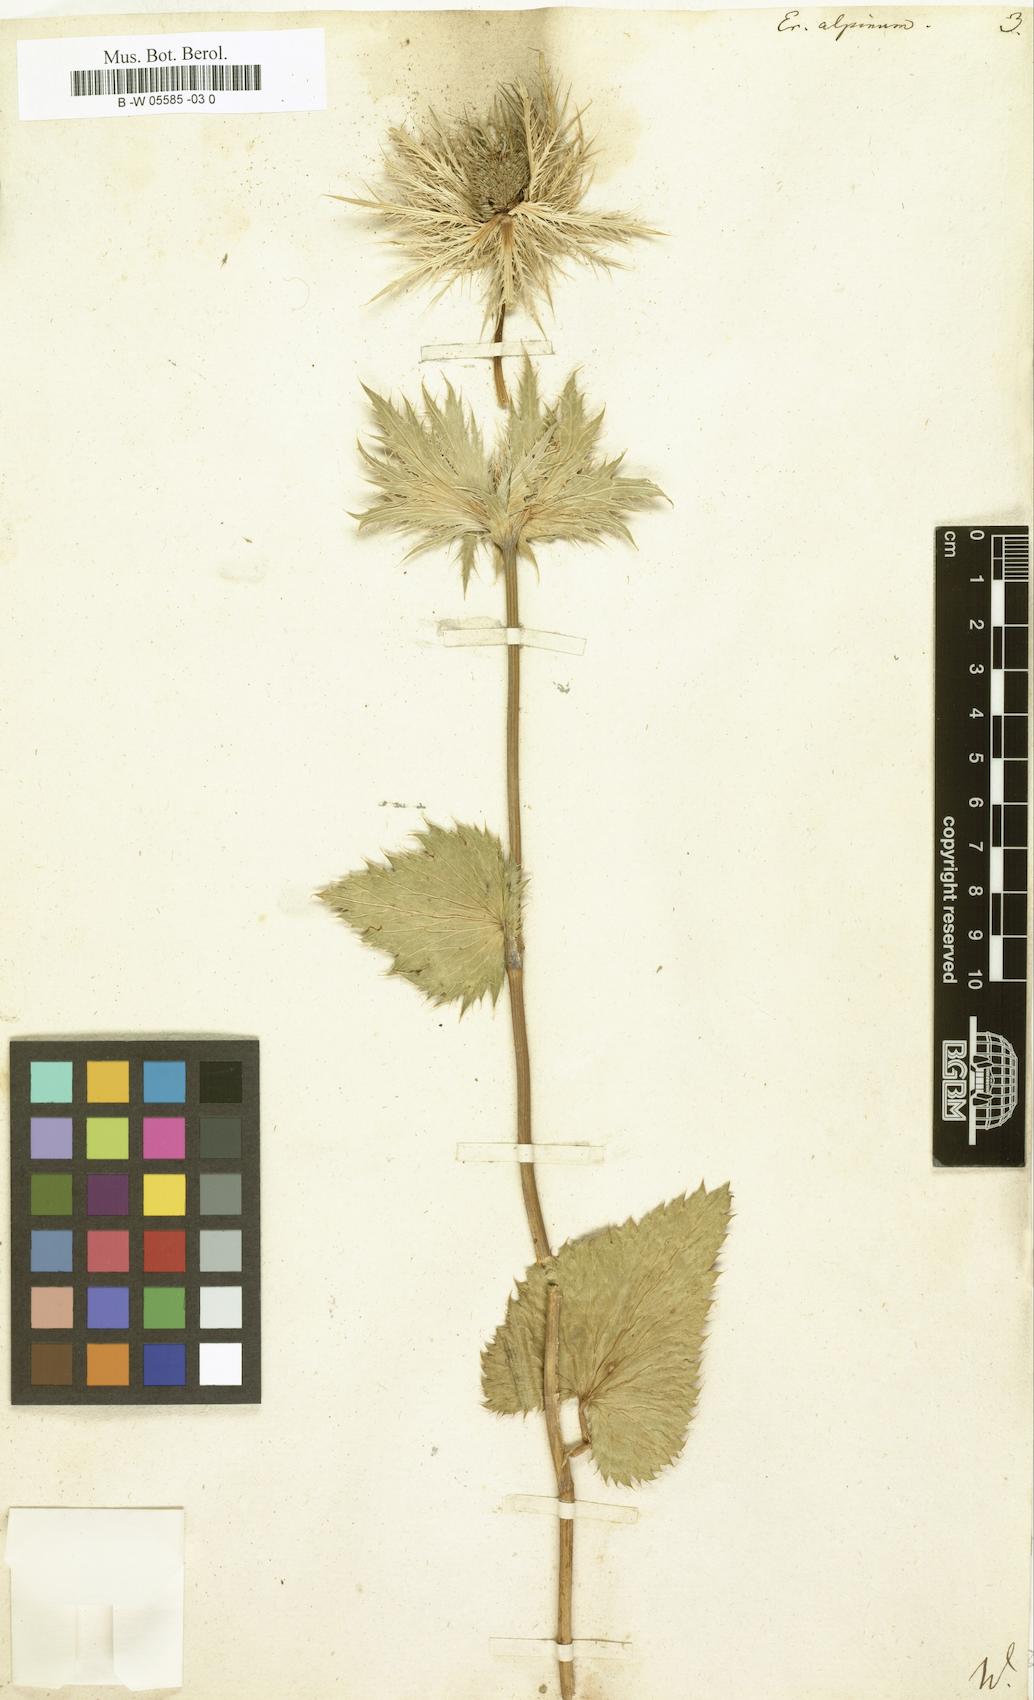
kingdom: Plantae
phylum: Tracheophyta
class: Magnoliopsida
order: Apiales
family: Apiaceae
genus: Eryngium
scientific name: Eryngium alpinum
